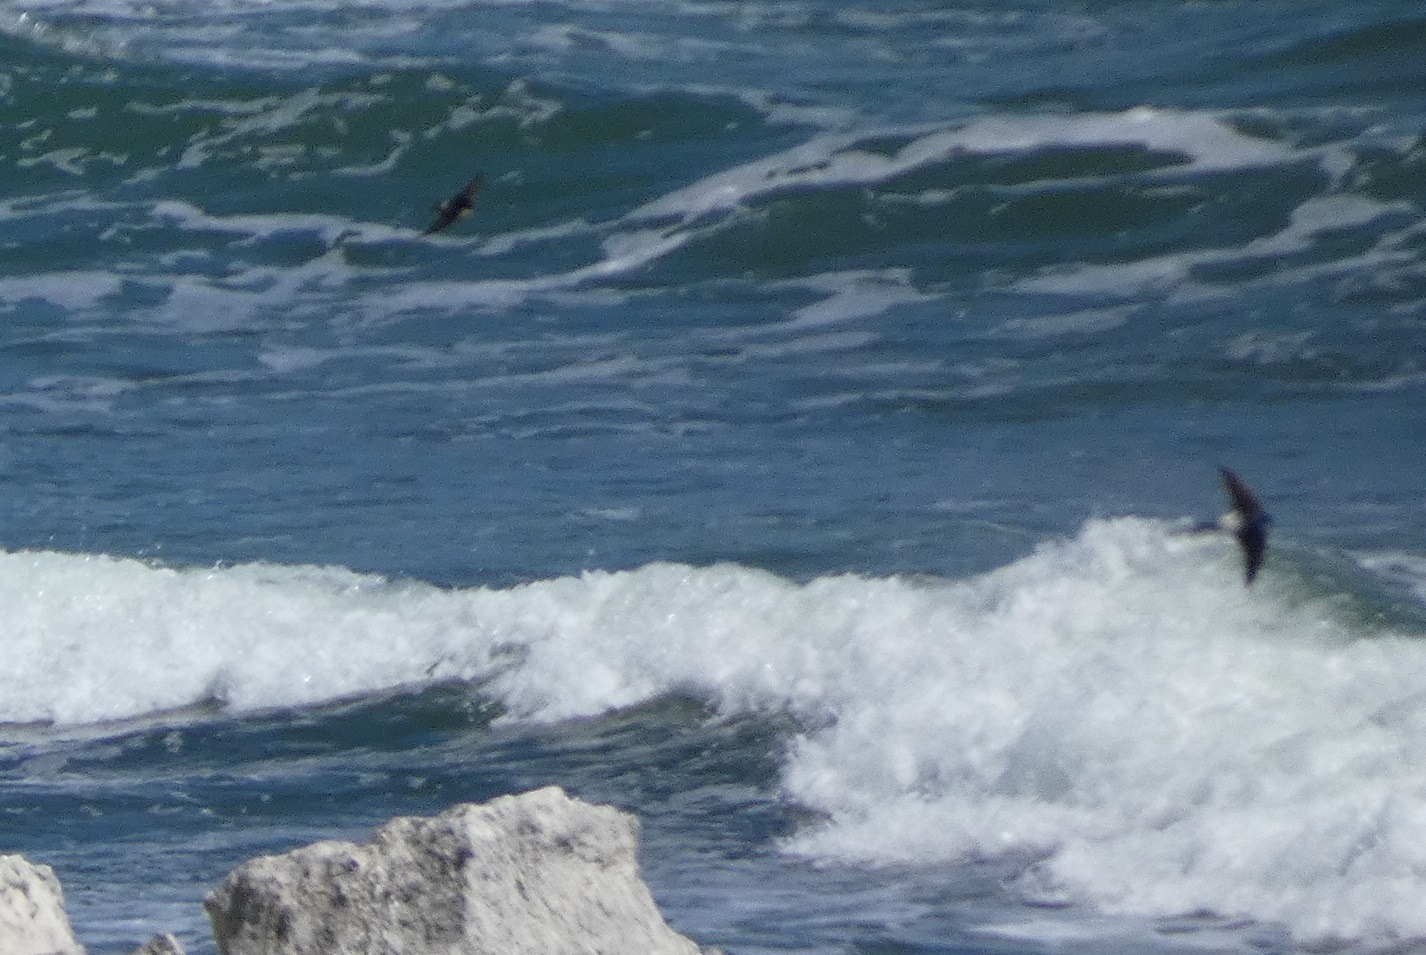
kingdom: Animalia
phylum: Chordata
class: Aves
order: Passeriformes
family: Hirundinidae
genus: Delichon
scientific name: Delichon urbicum
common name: Bysvale
